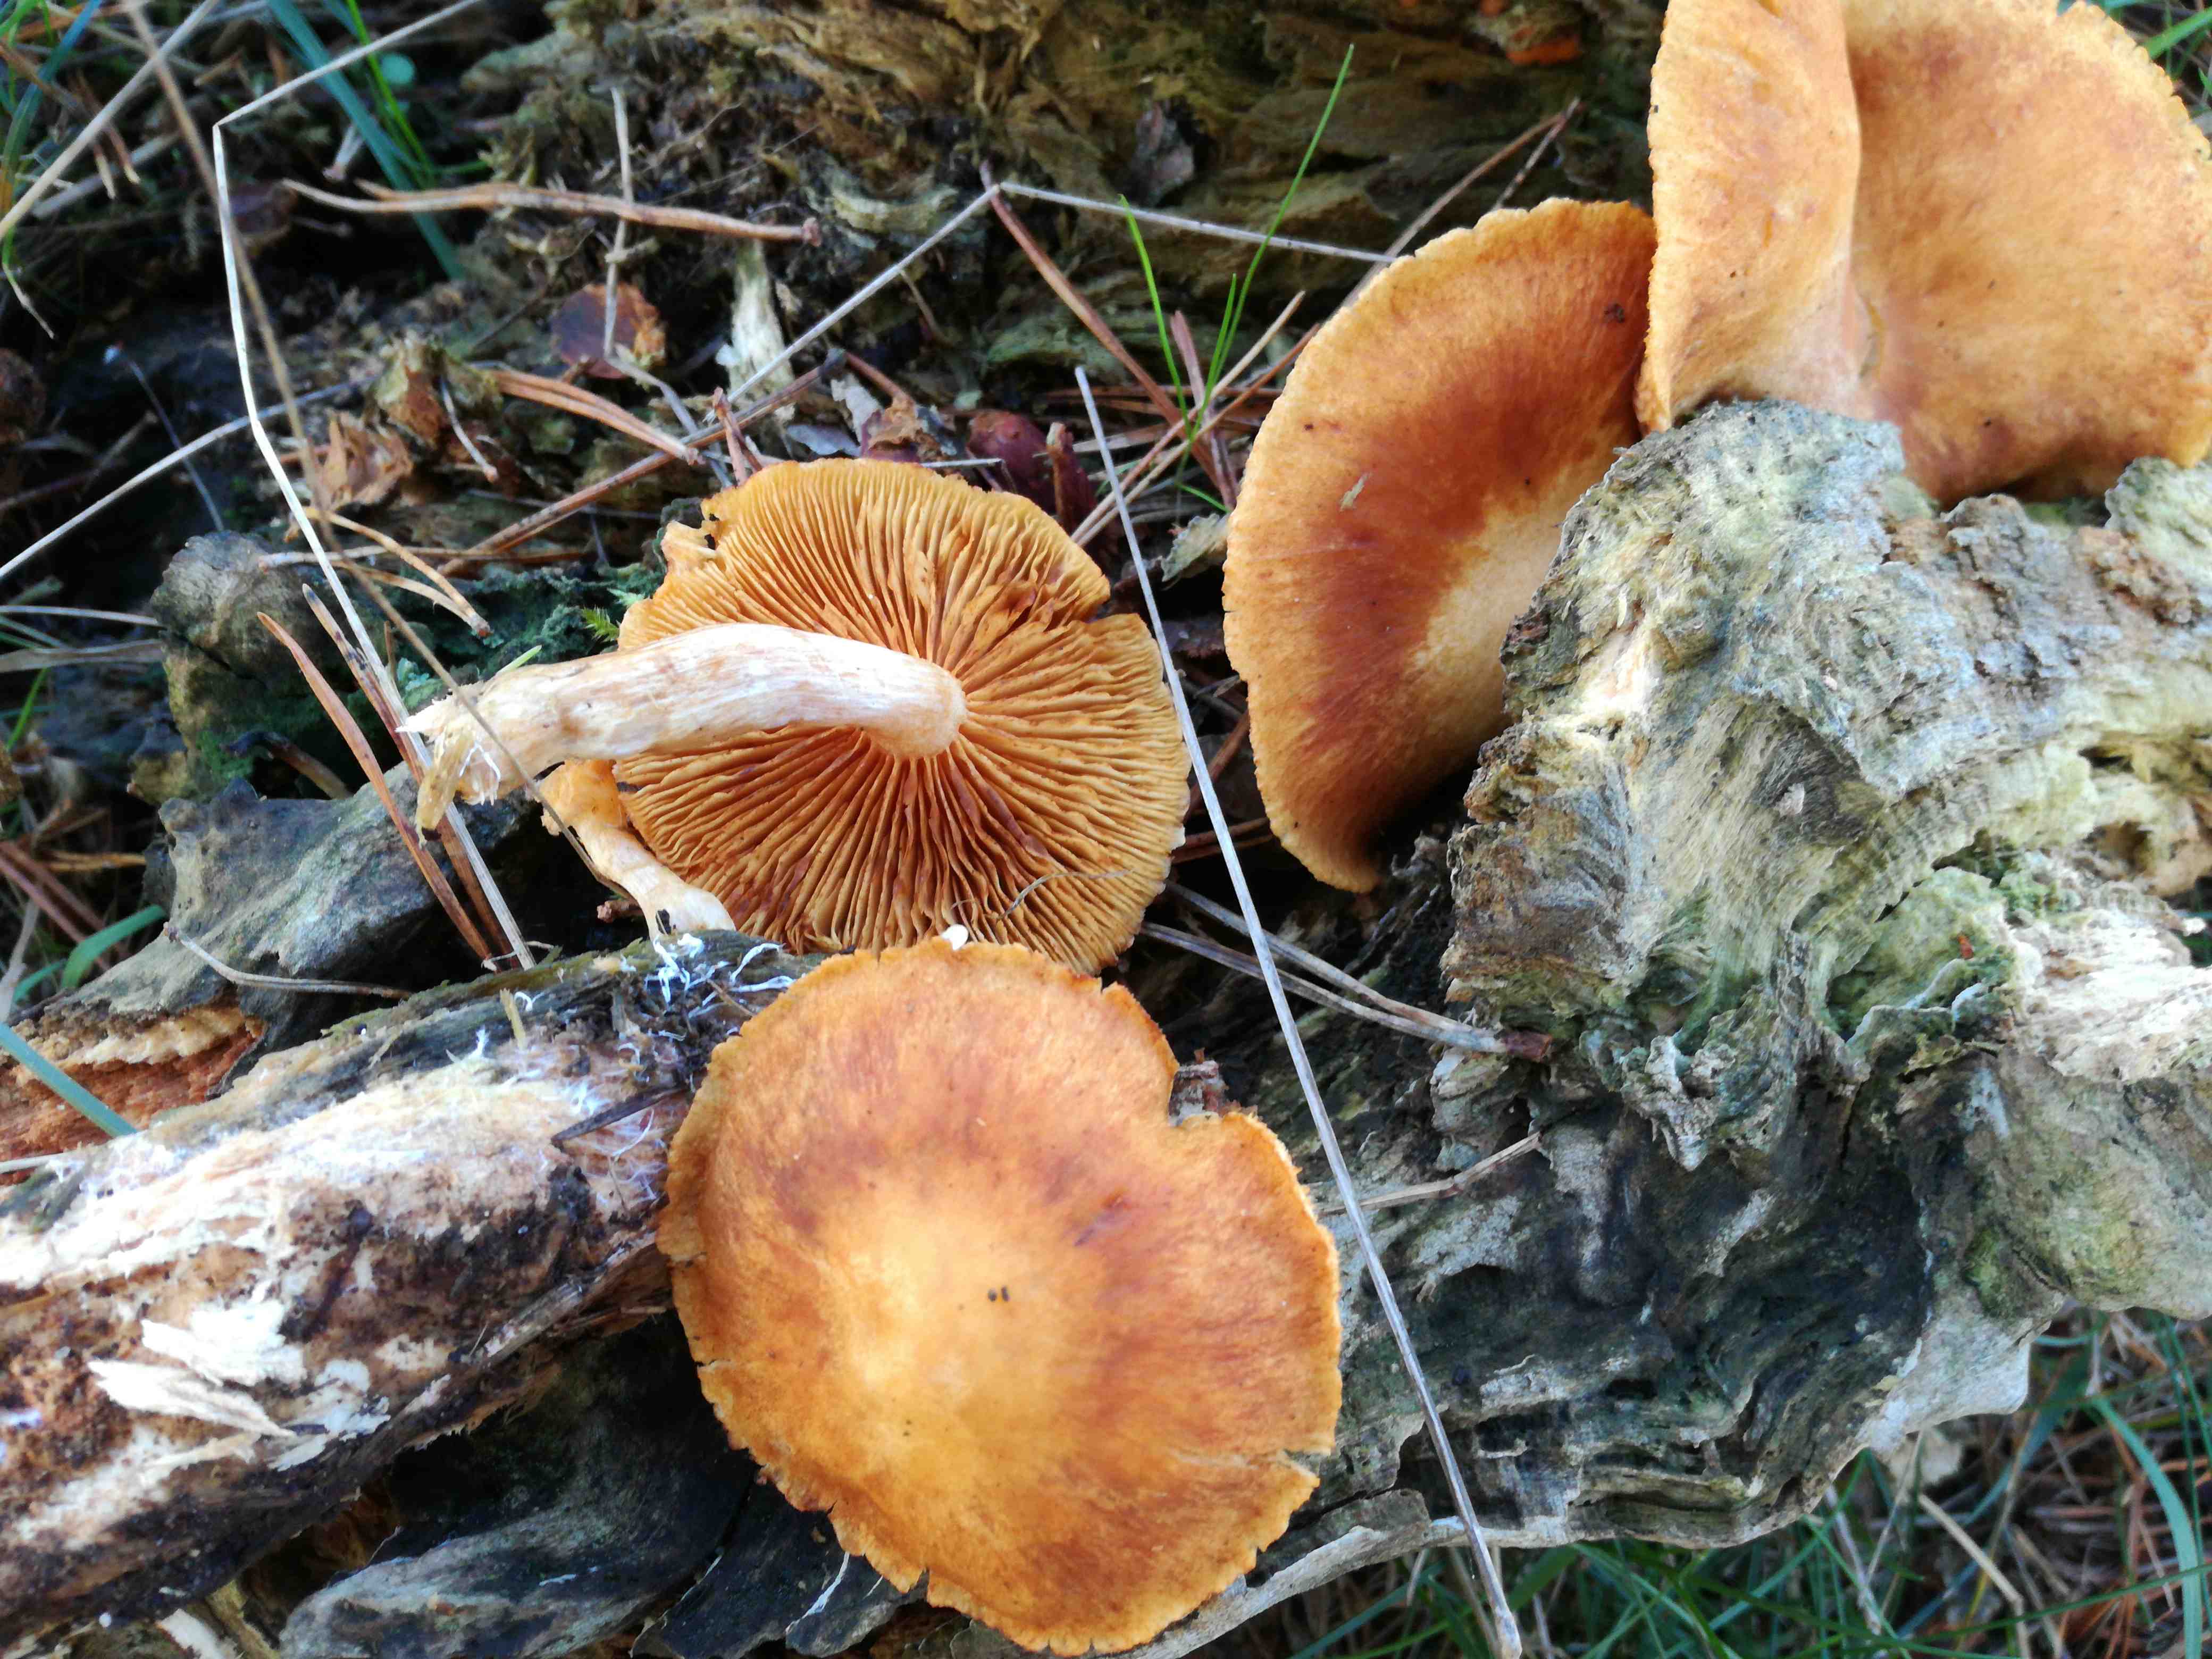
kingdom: Fungi
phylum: Basidiomycota
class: Agaricomycetes
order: Agaricales
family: Hymenogastraceae
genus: Gymnopilus
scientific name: Gymnopilus penetrans
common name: plettet flammehat
